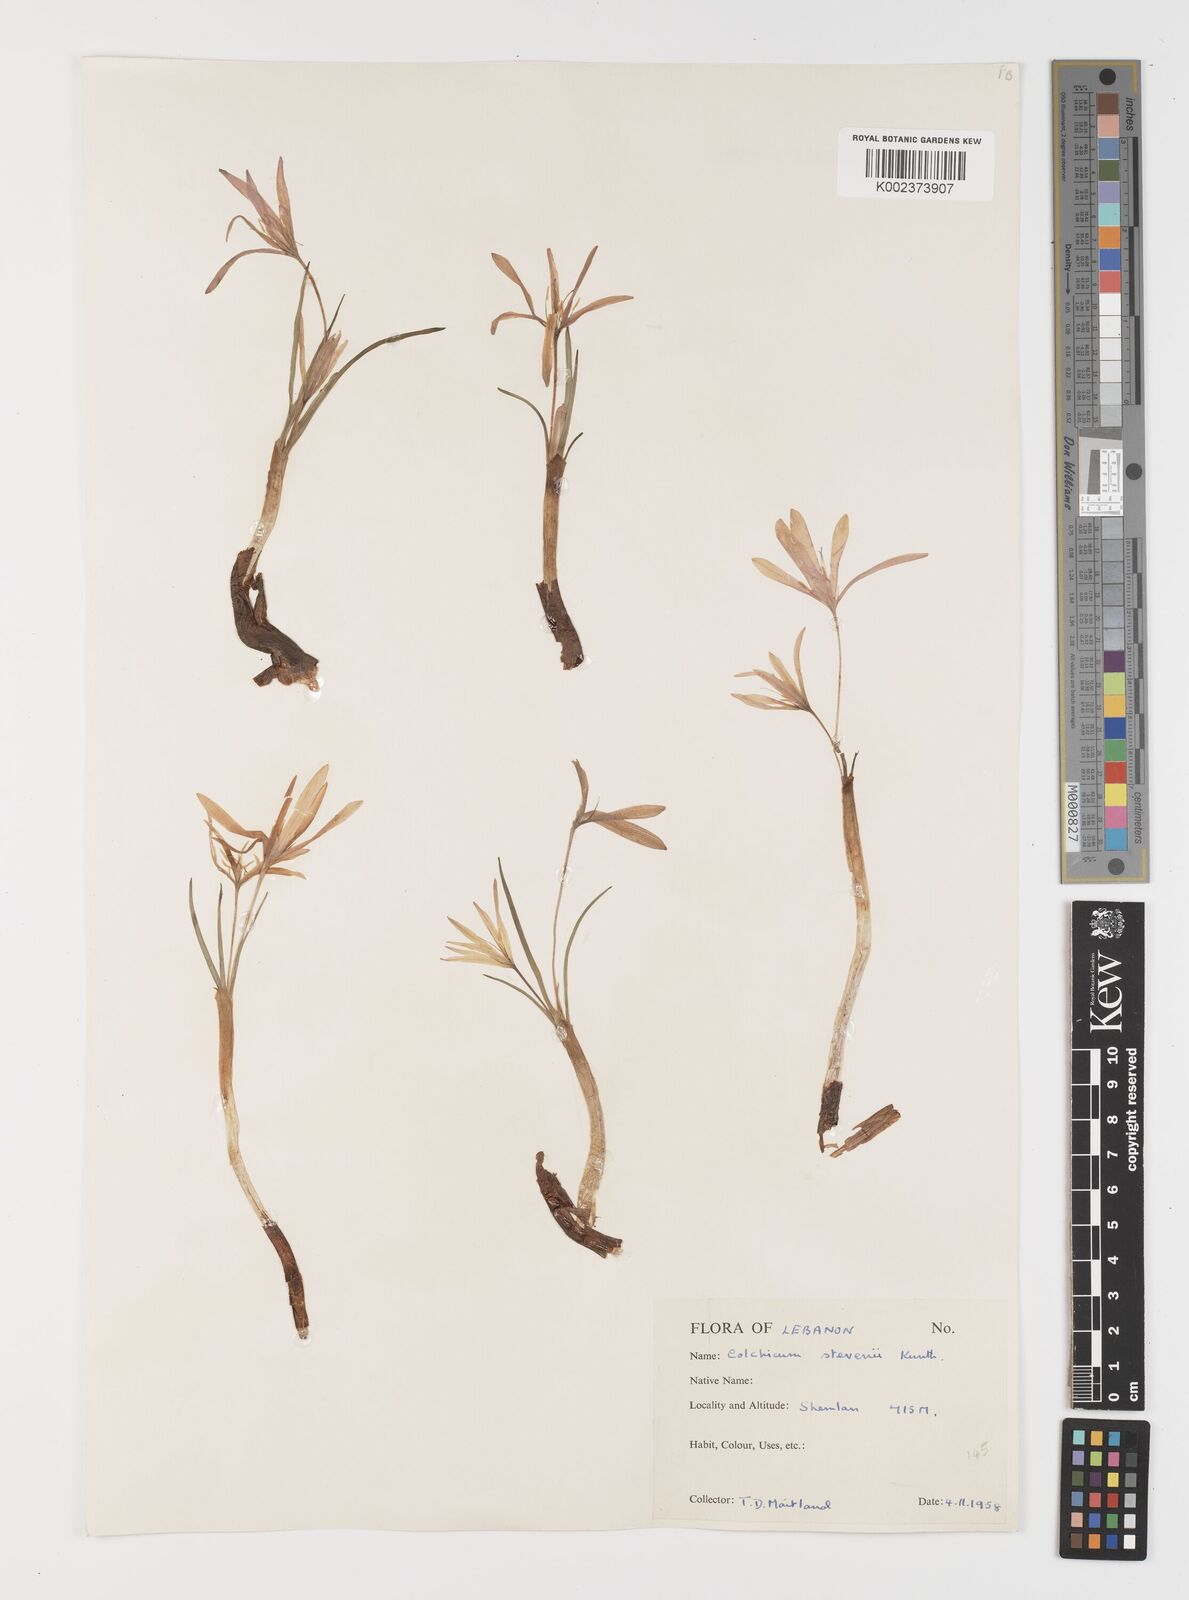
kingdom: Plantae
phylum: Tracheophyta
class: Liliopsida
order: Liliales
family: Colchicaceae
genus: Colchicum
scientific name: Colchicum stevenii
